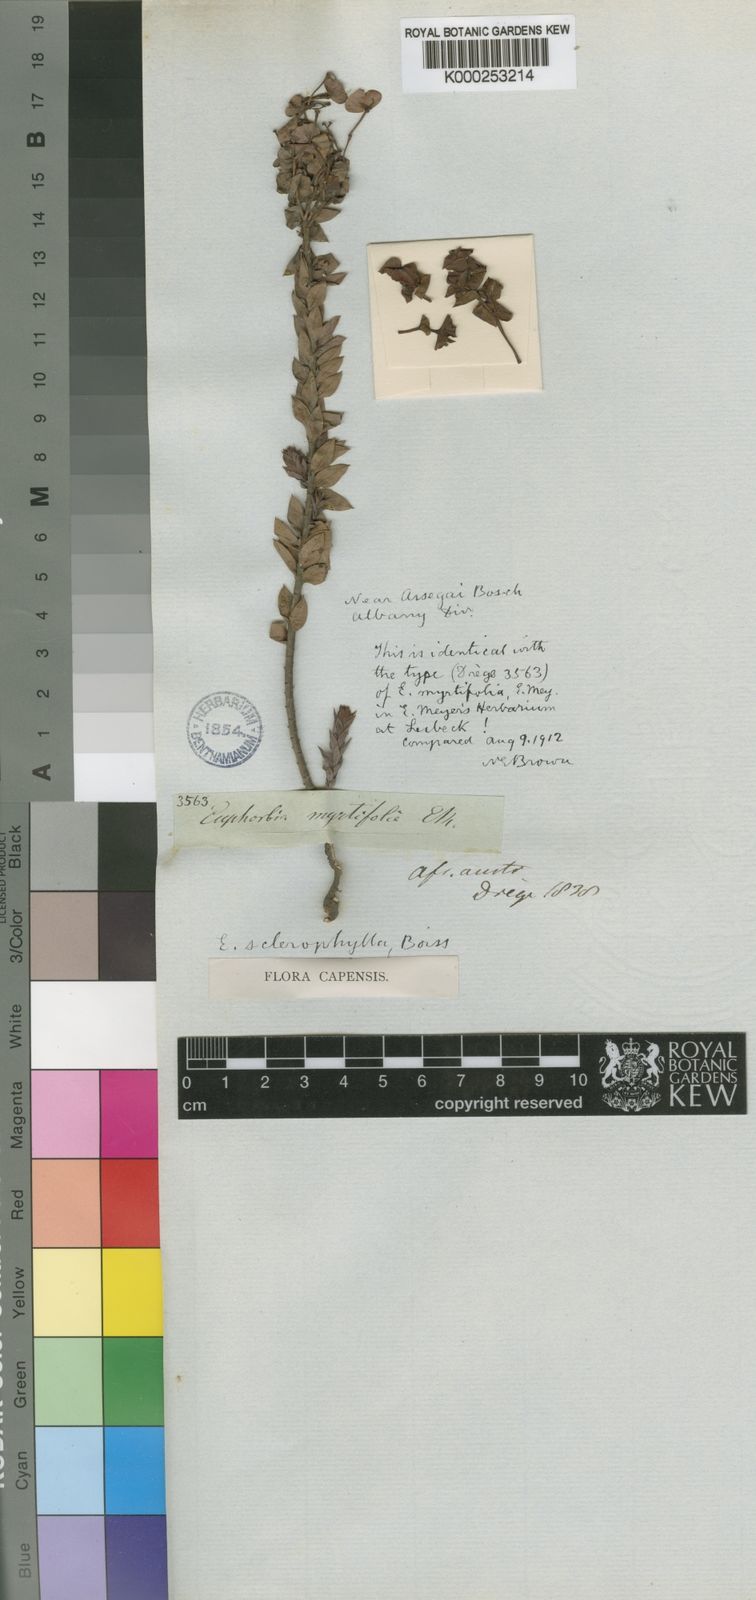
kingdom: Plantae
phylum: Tracheophyta
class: Magnoliopsida
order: Malpighiales
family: Euphorbiaceae
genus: Euphorbia
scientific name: Euphorbia sclerophylla
